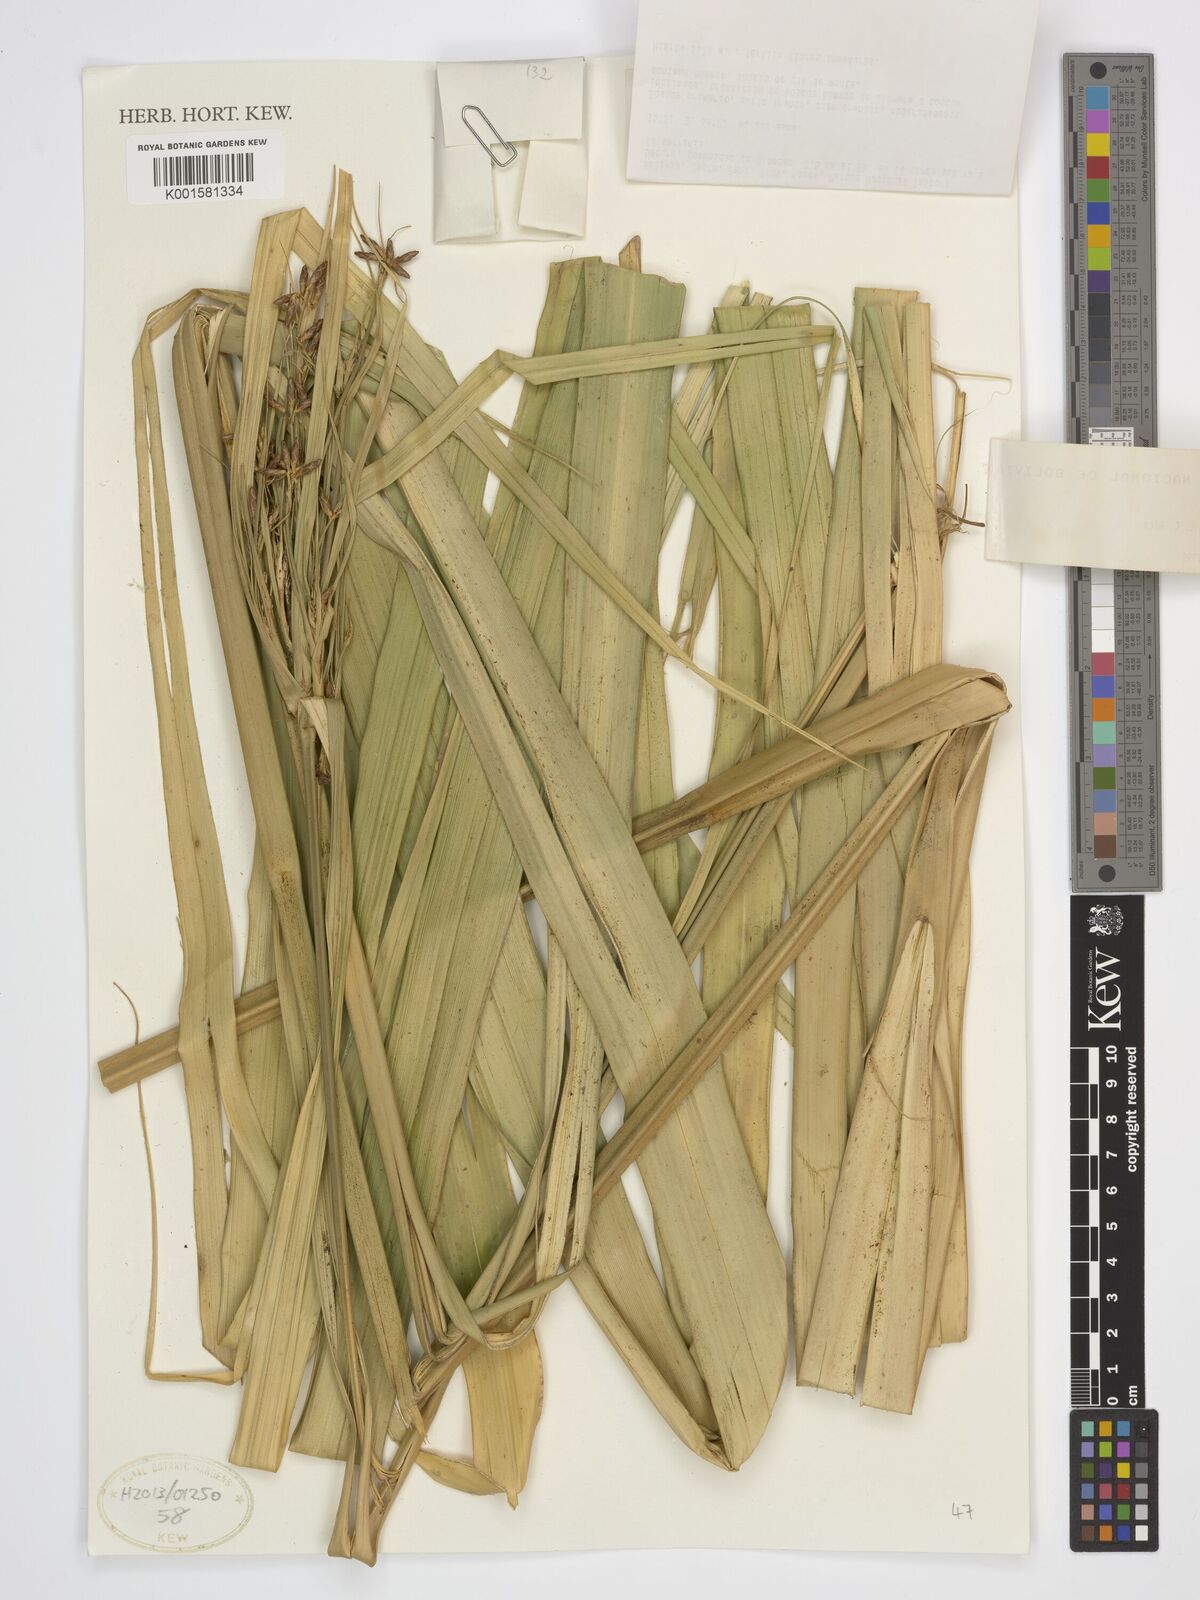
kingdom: Plantae
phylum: Tracheophyta
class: Liliopsida
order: Poales
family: Cyperaceae
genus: Diplasia
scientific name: Diplasia karatifolia
